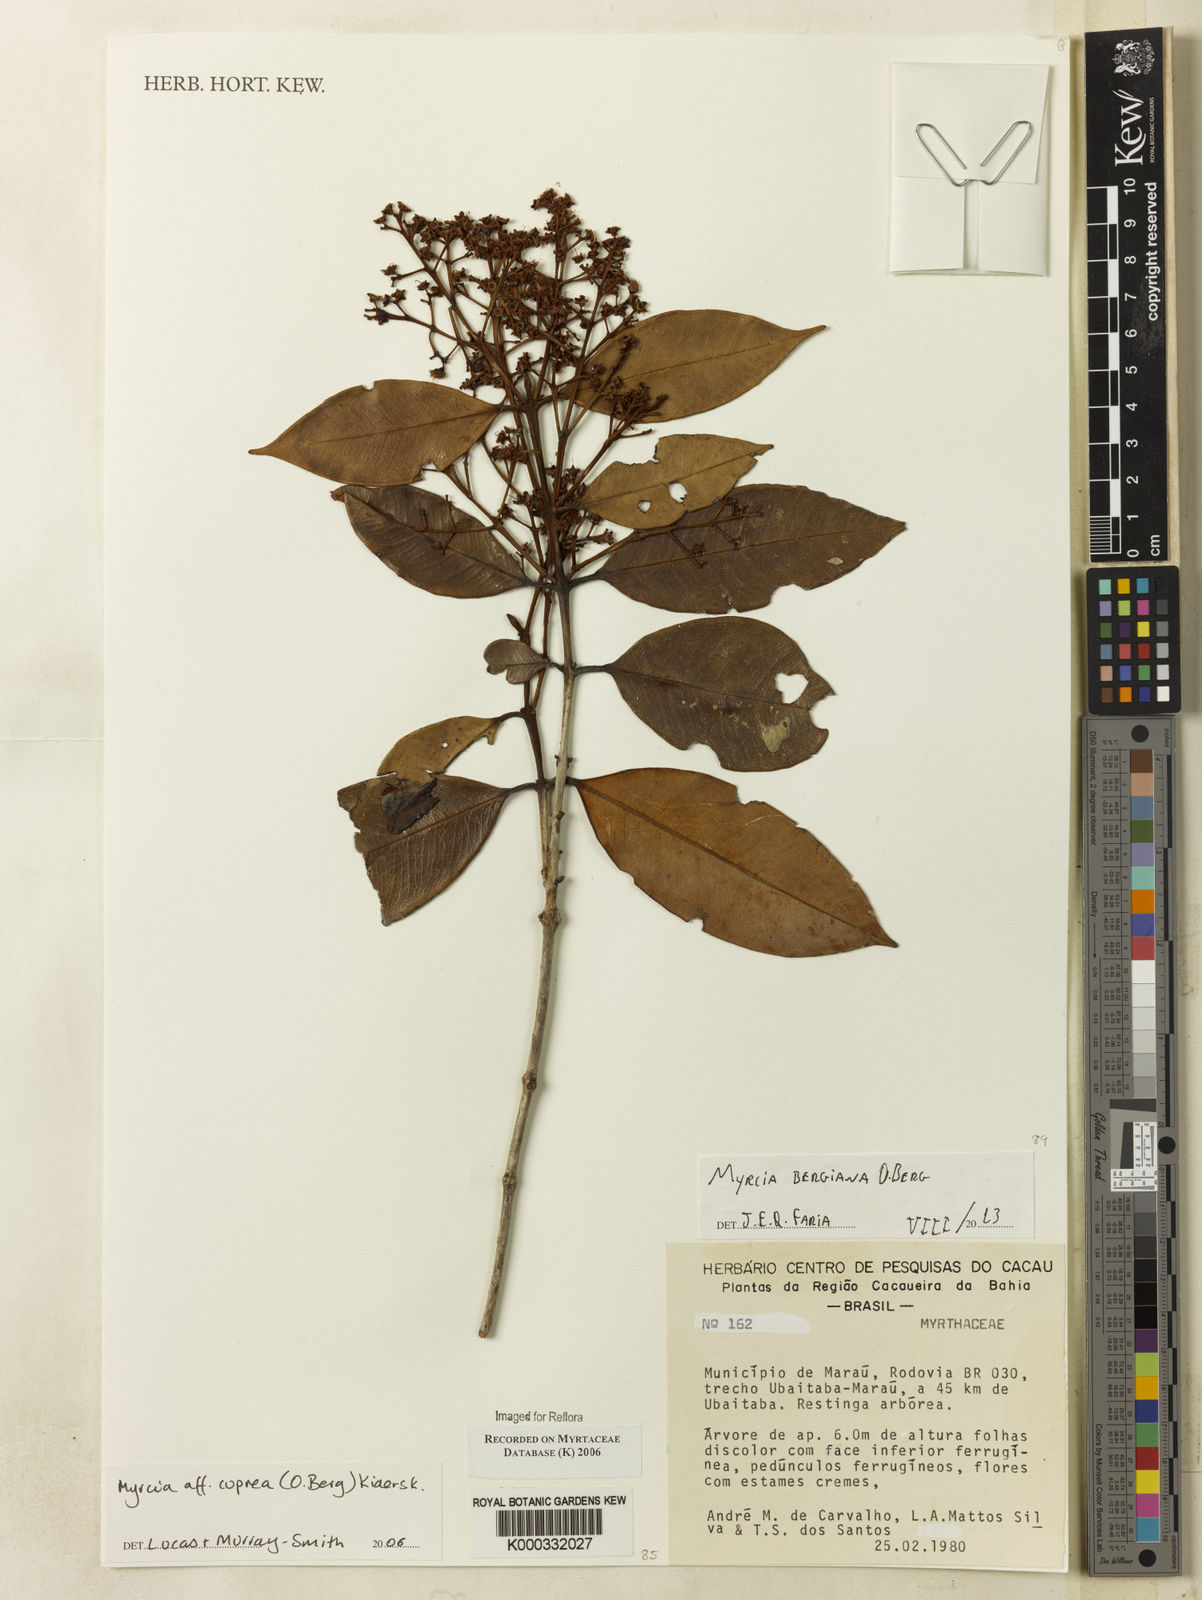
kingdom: Plantae
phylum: Tracheophyta
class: Magnoliopsida
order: Myrtales
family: Myrtaceae
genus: Myrcia
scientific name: Myrcia cuprea
